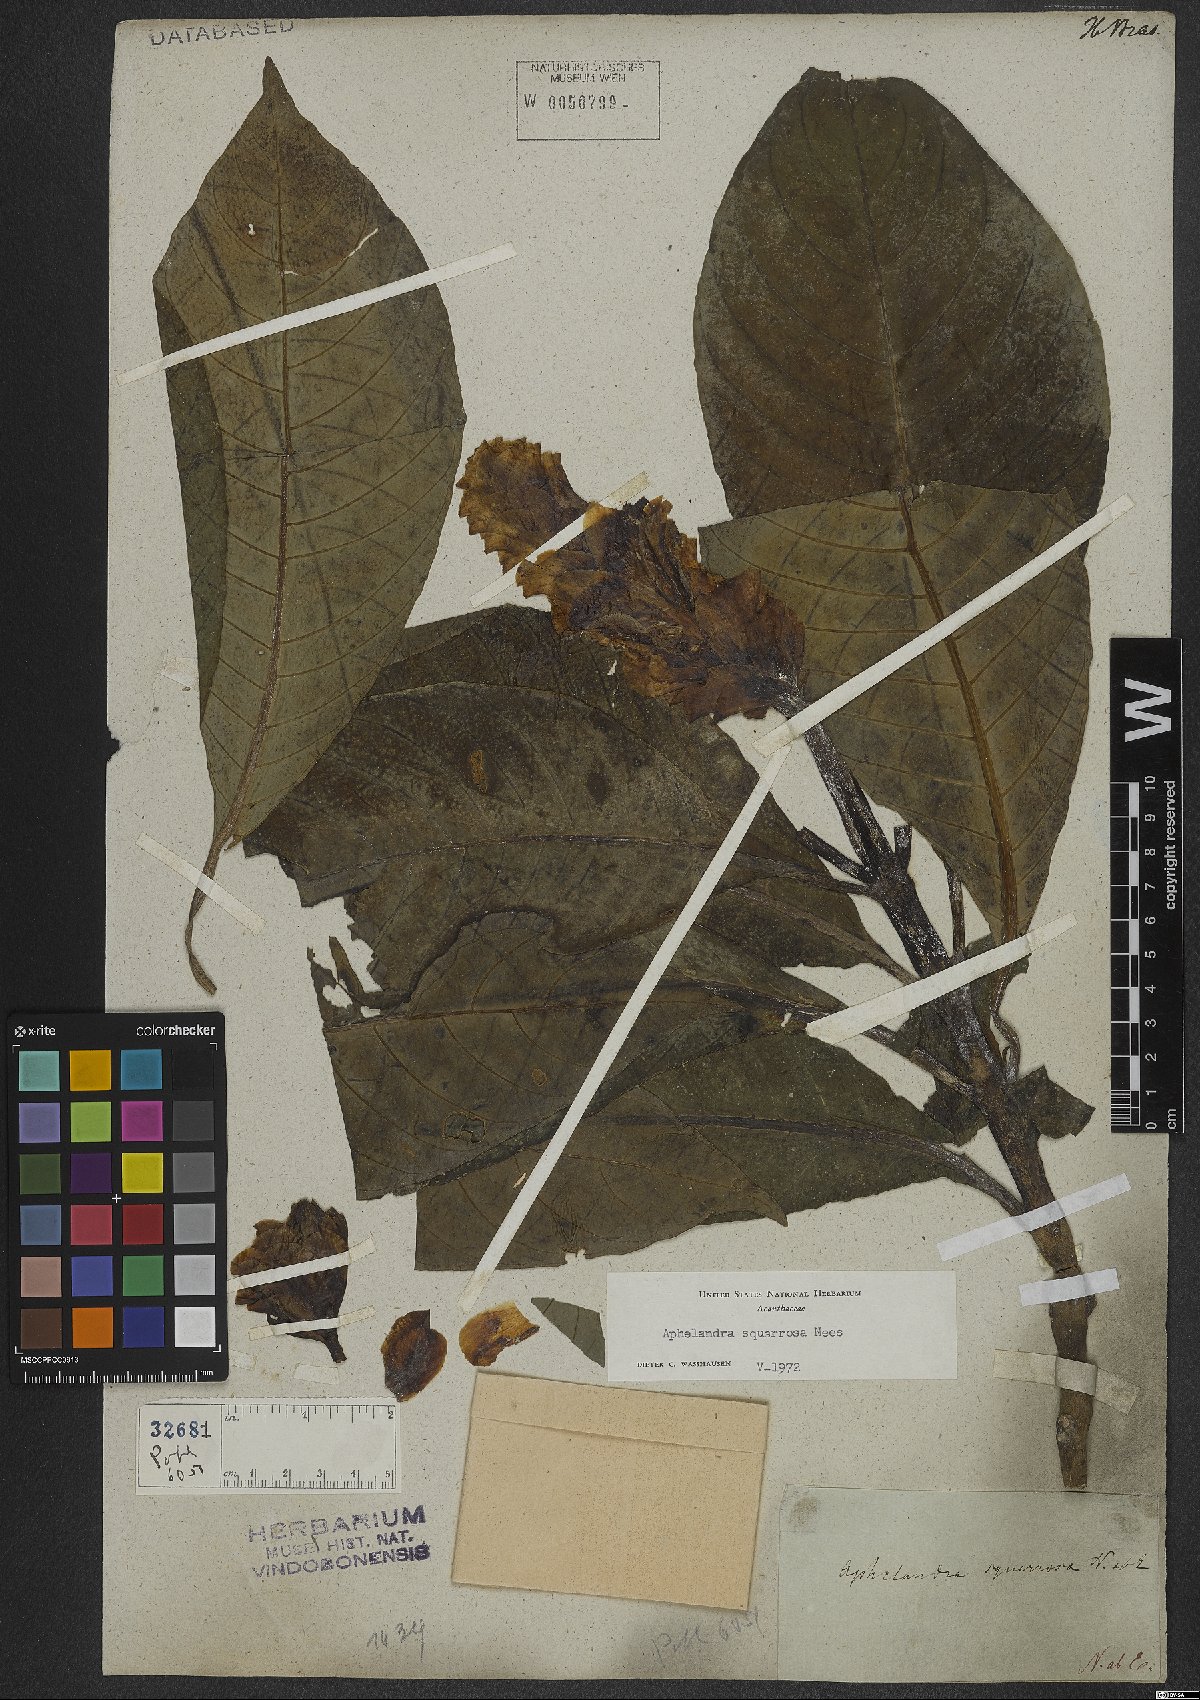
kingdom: Plantae
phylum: Tracheophyta
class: Magnoliopsida
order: Lamiales
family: Acanthaceae
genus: Aphelandra
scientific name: Aphelandra squarrosa
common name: Saffron spike
